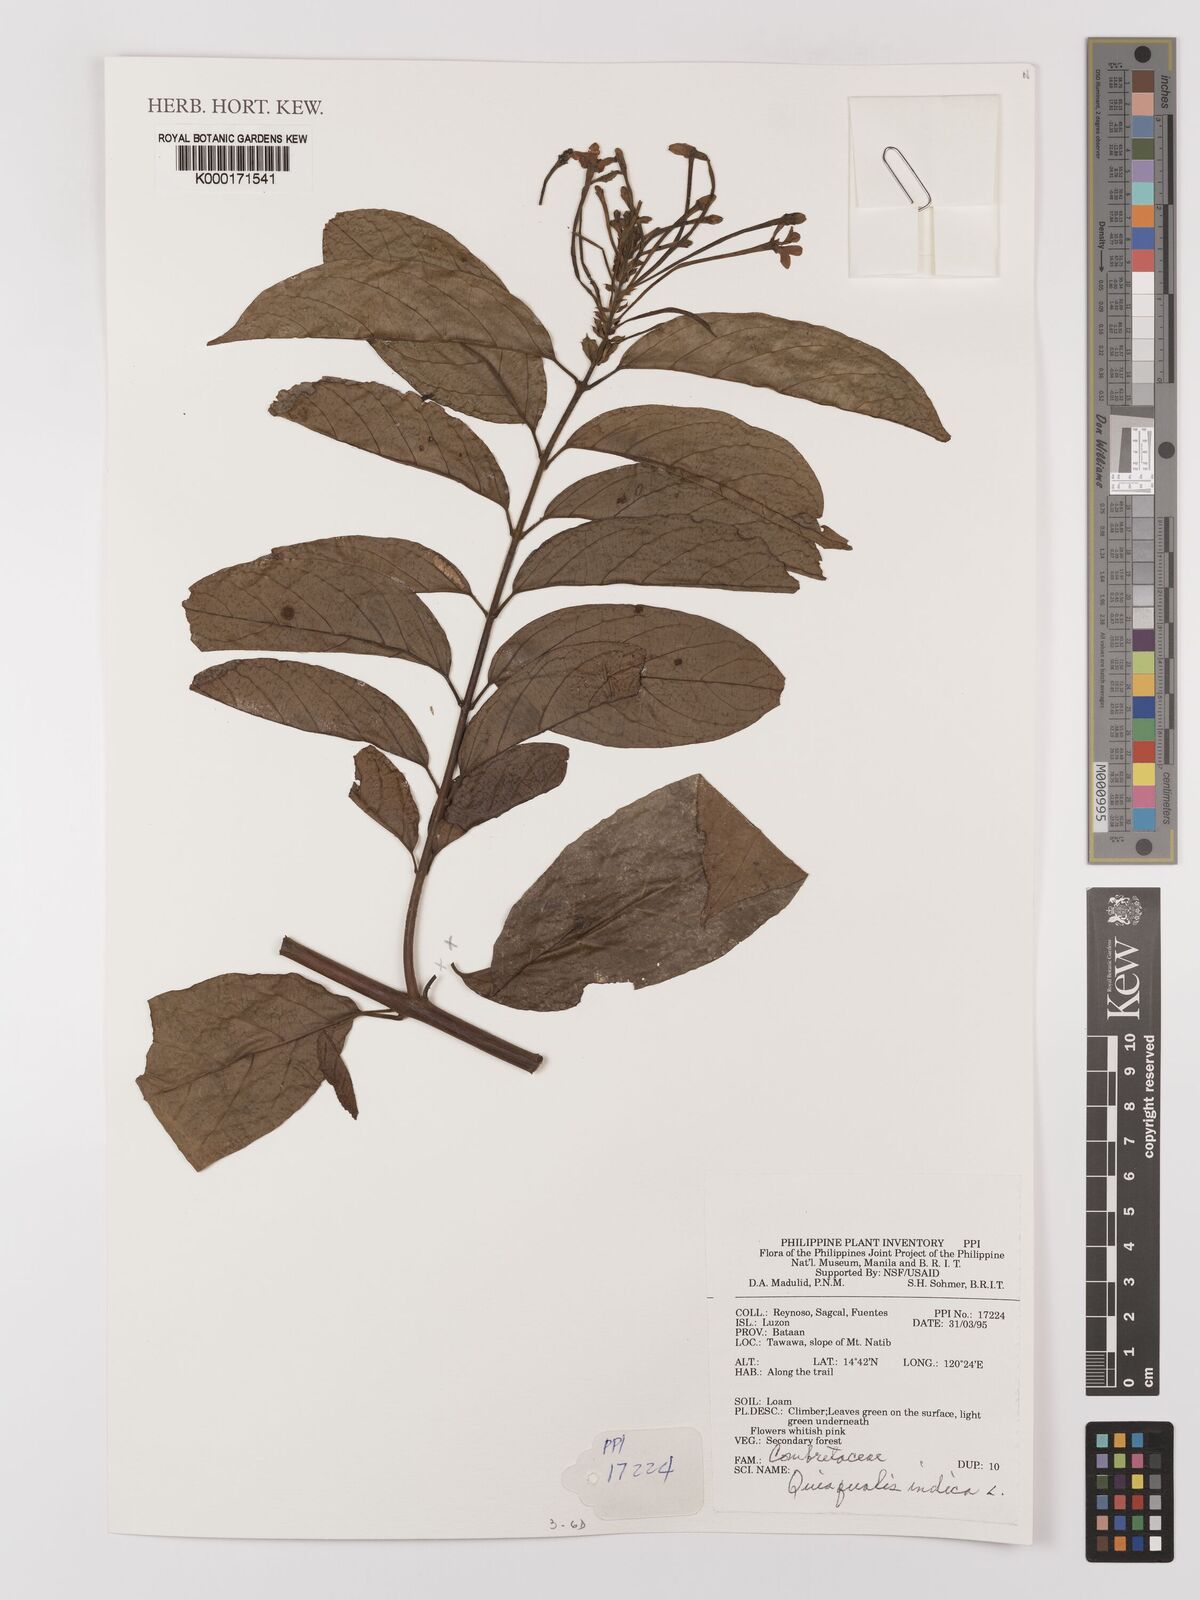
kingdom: Plantae
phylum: Tracheophyta
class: Magnoliopsida
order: Myrtales
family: Combretaceae
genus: Combretum
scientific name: Combretum indicum
